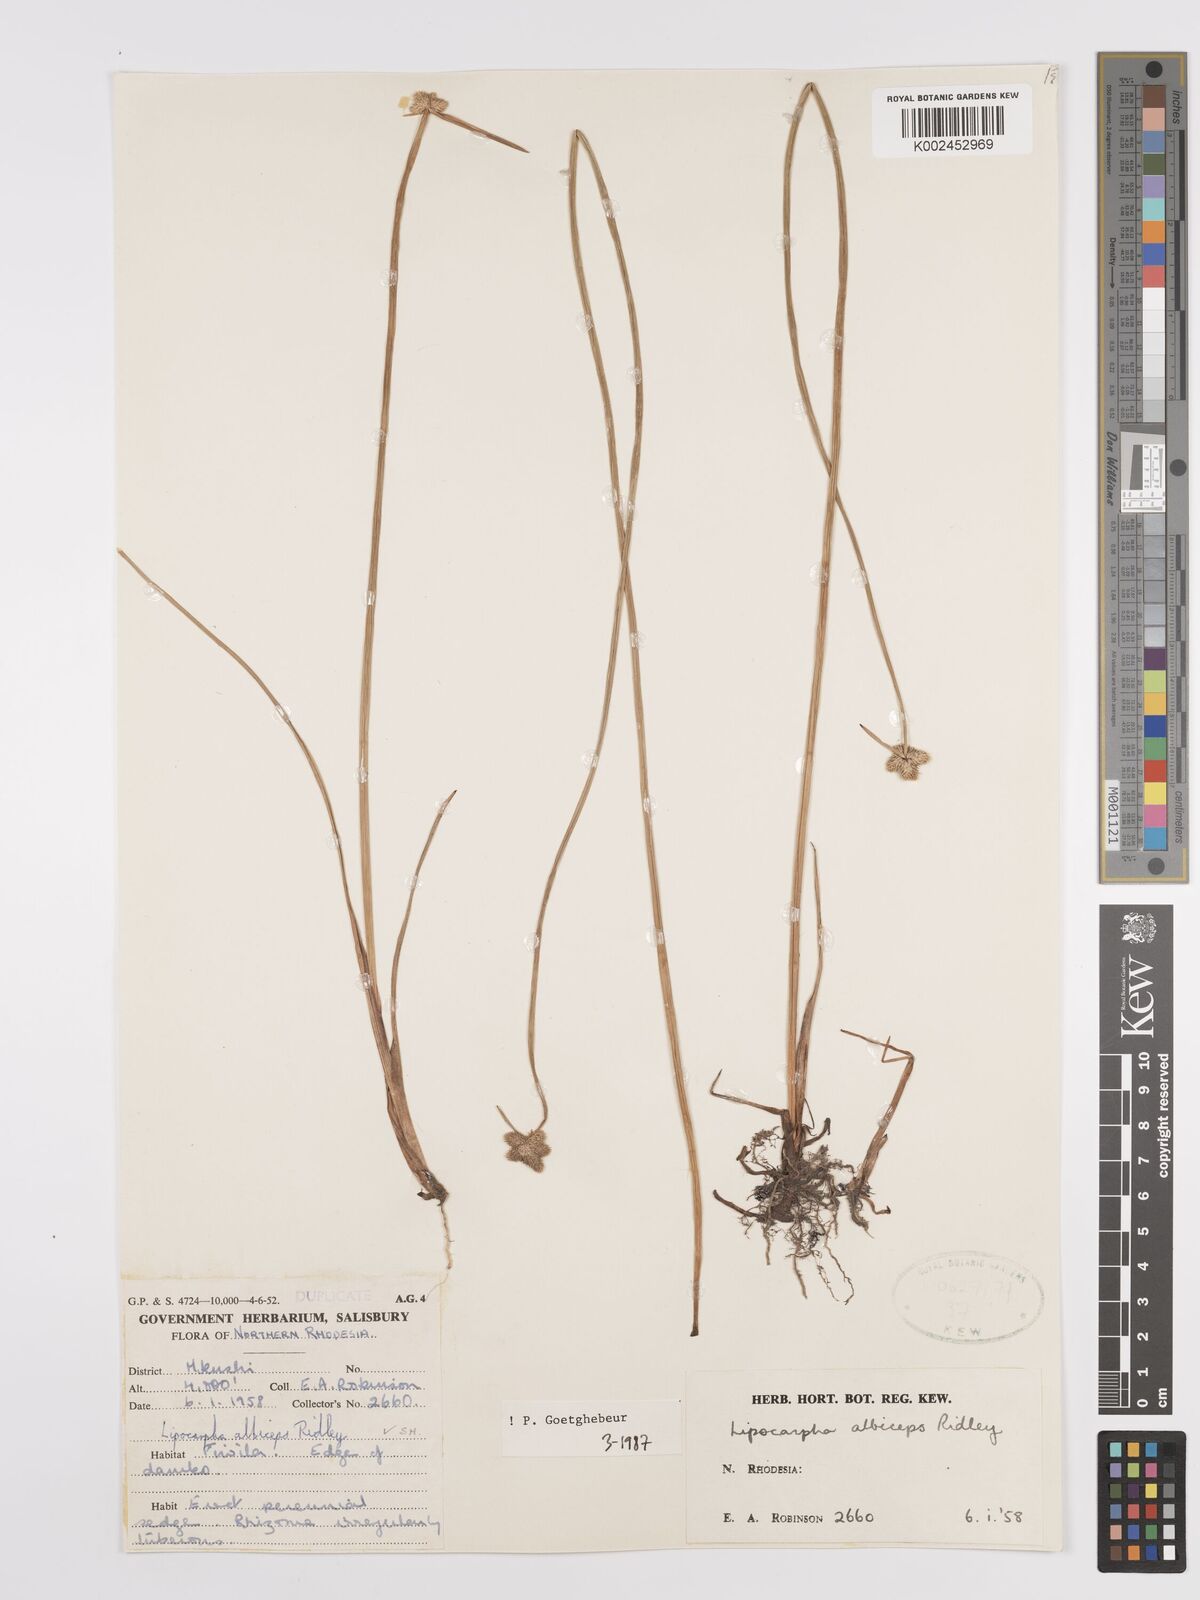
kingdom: Plantae
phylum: Tracheophyta
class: Liliopsida
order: Poales
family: Cyperaceae
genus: Cyperus
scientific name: Cyperus albiceps
